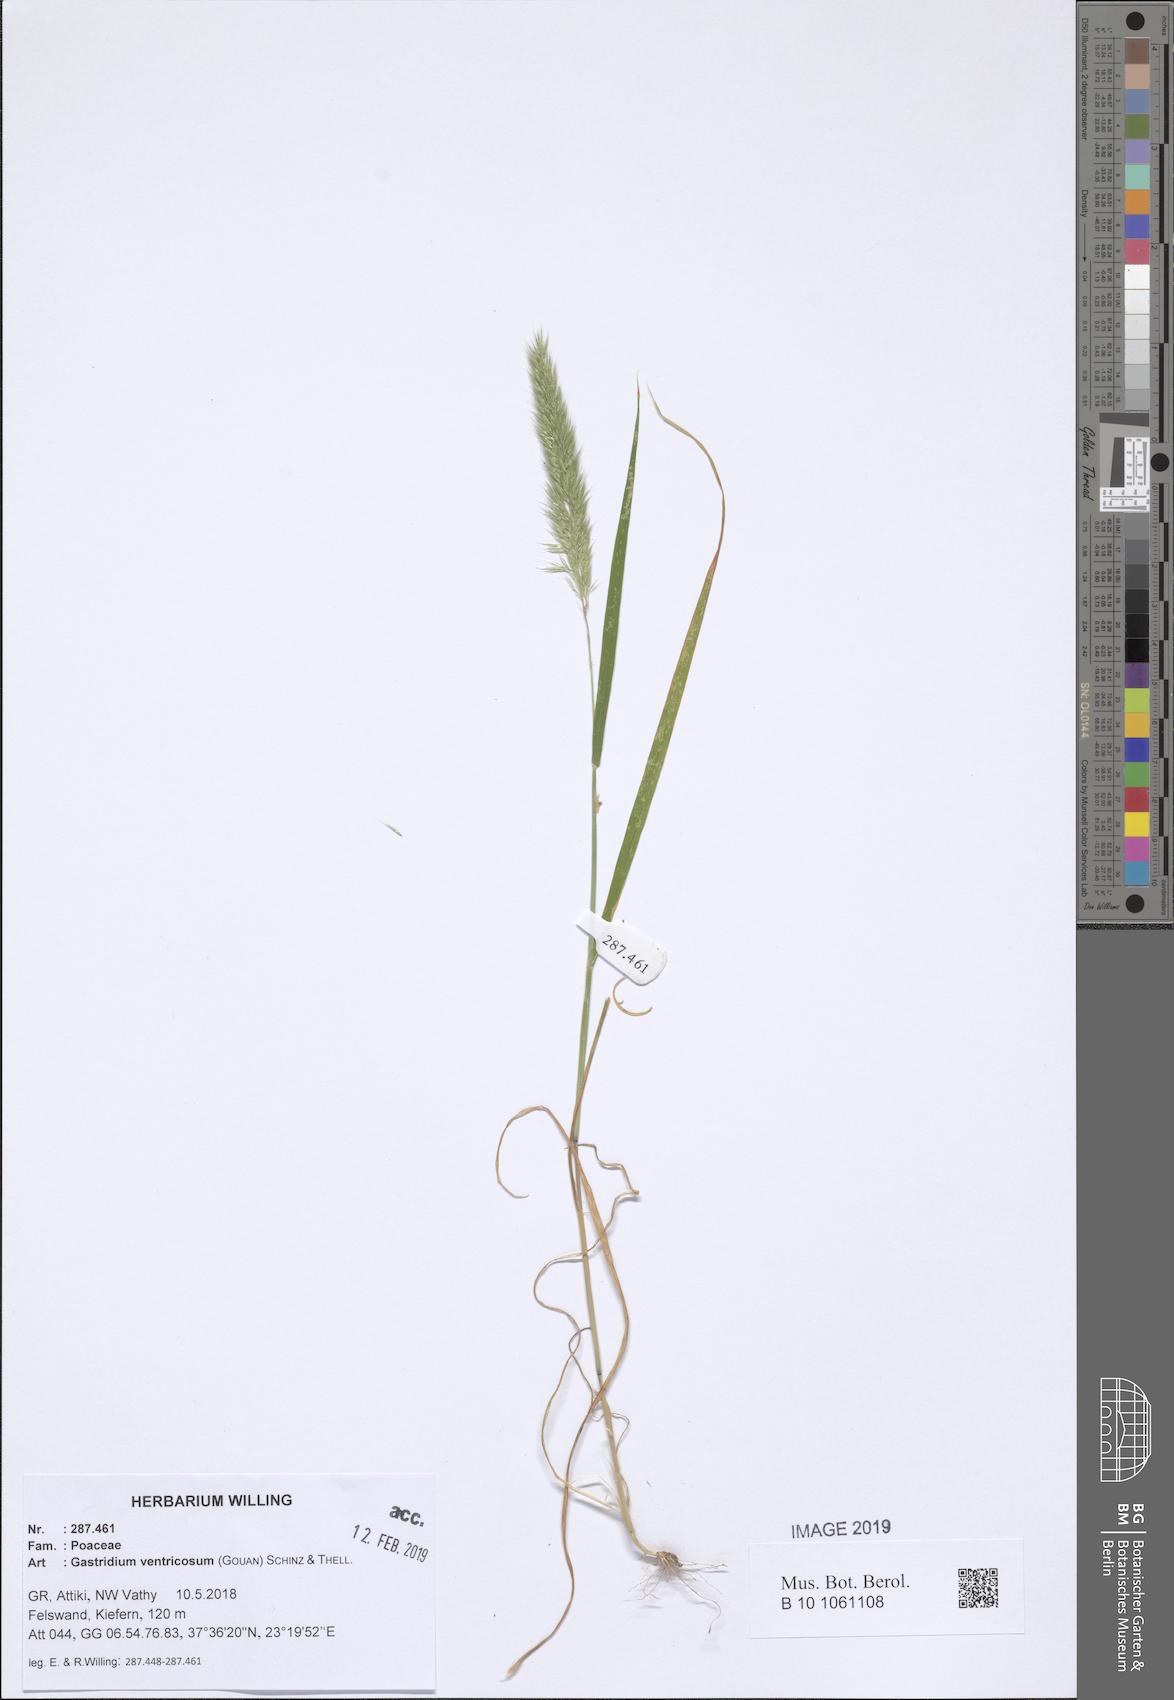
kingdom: Plantae
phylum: Tracheophyta
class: Liliopsida
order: Poales
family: Poaceae
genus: Gastridium
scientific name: Gastridium ventricosum
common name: Nit-grass
